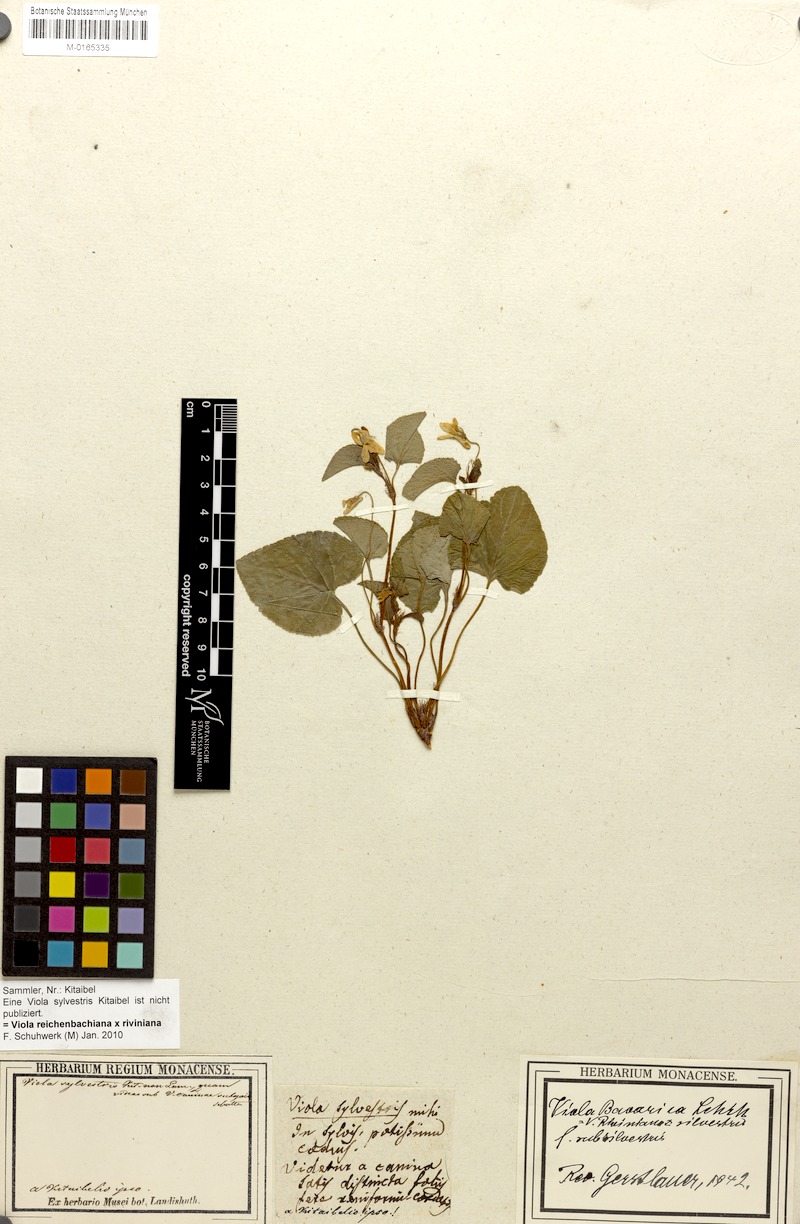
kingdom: Plantae
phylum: Tracheophyta
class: Magnoliopsida
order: Malpighiales
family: Violaceae
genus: Viola
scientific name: Viola
